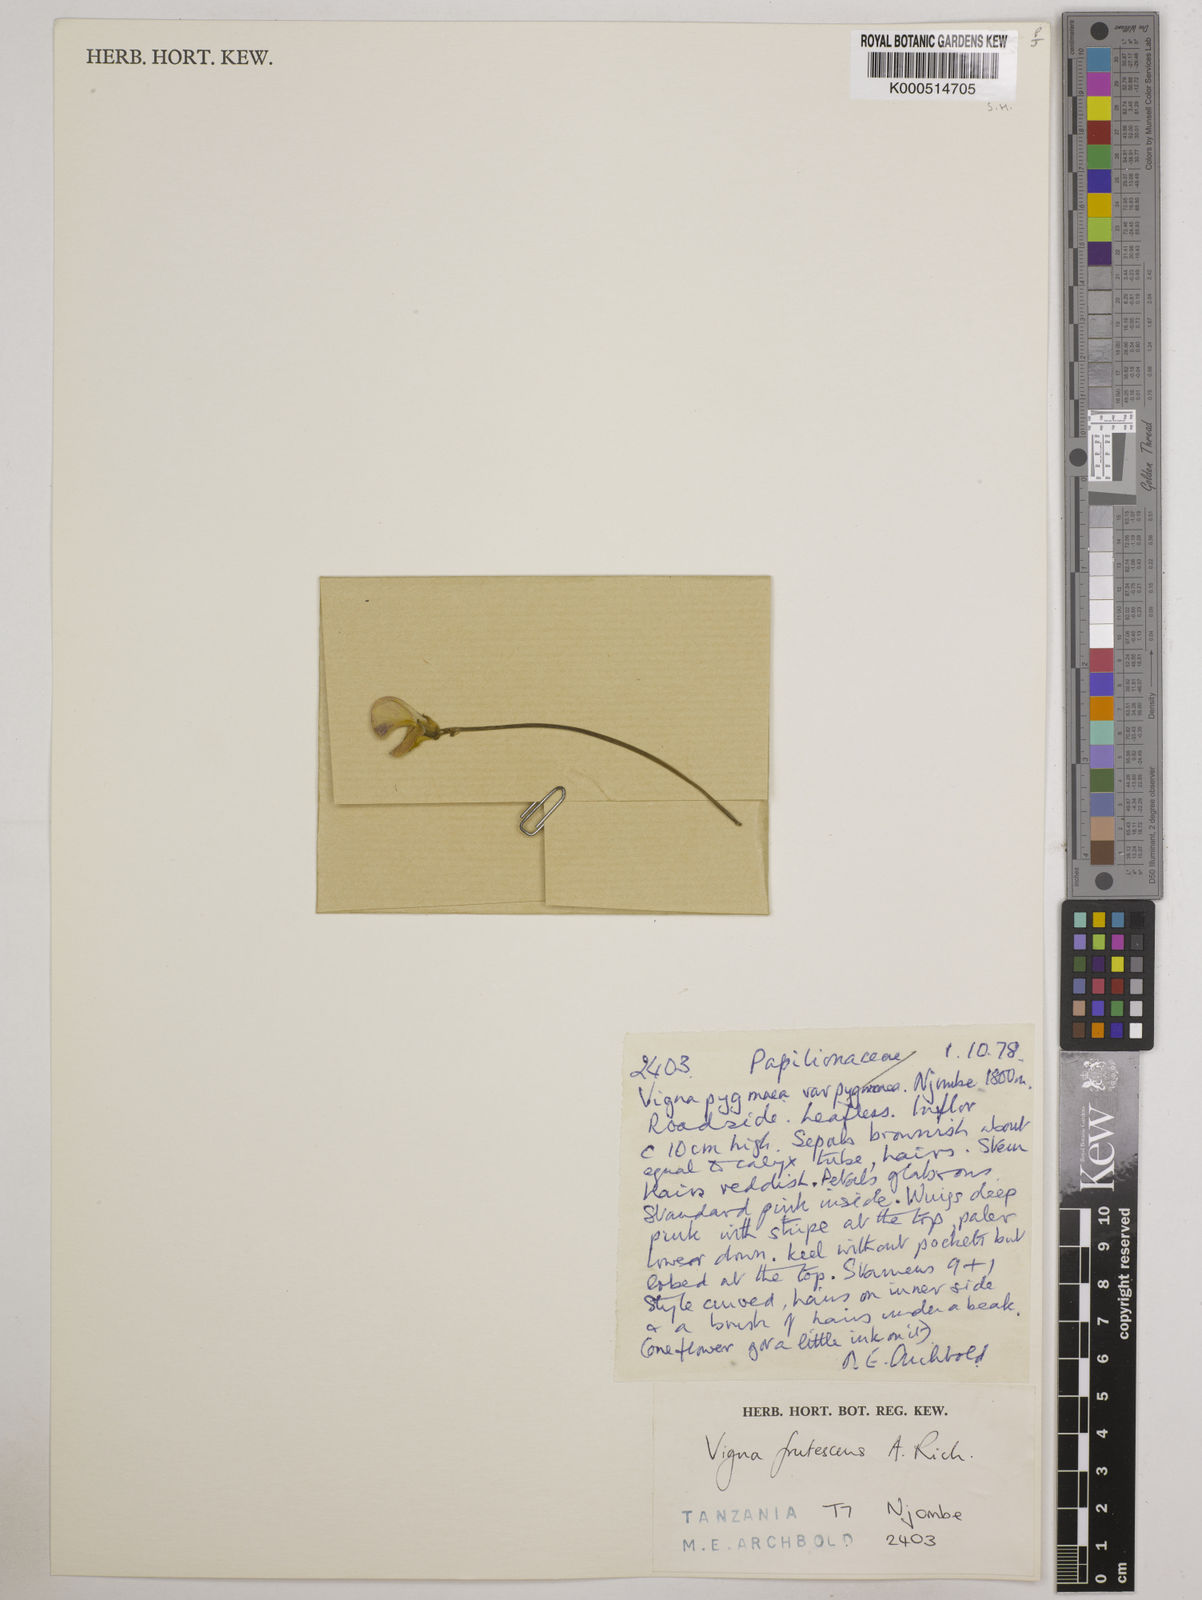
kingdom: Plantae
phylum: Tracheophyta
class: Magnoliopsida
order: Fabales
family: Fabaceae
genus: Vigna
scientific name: Vigna frutescens
